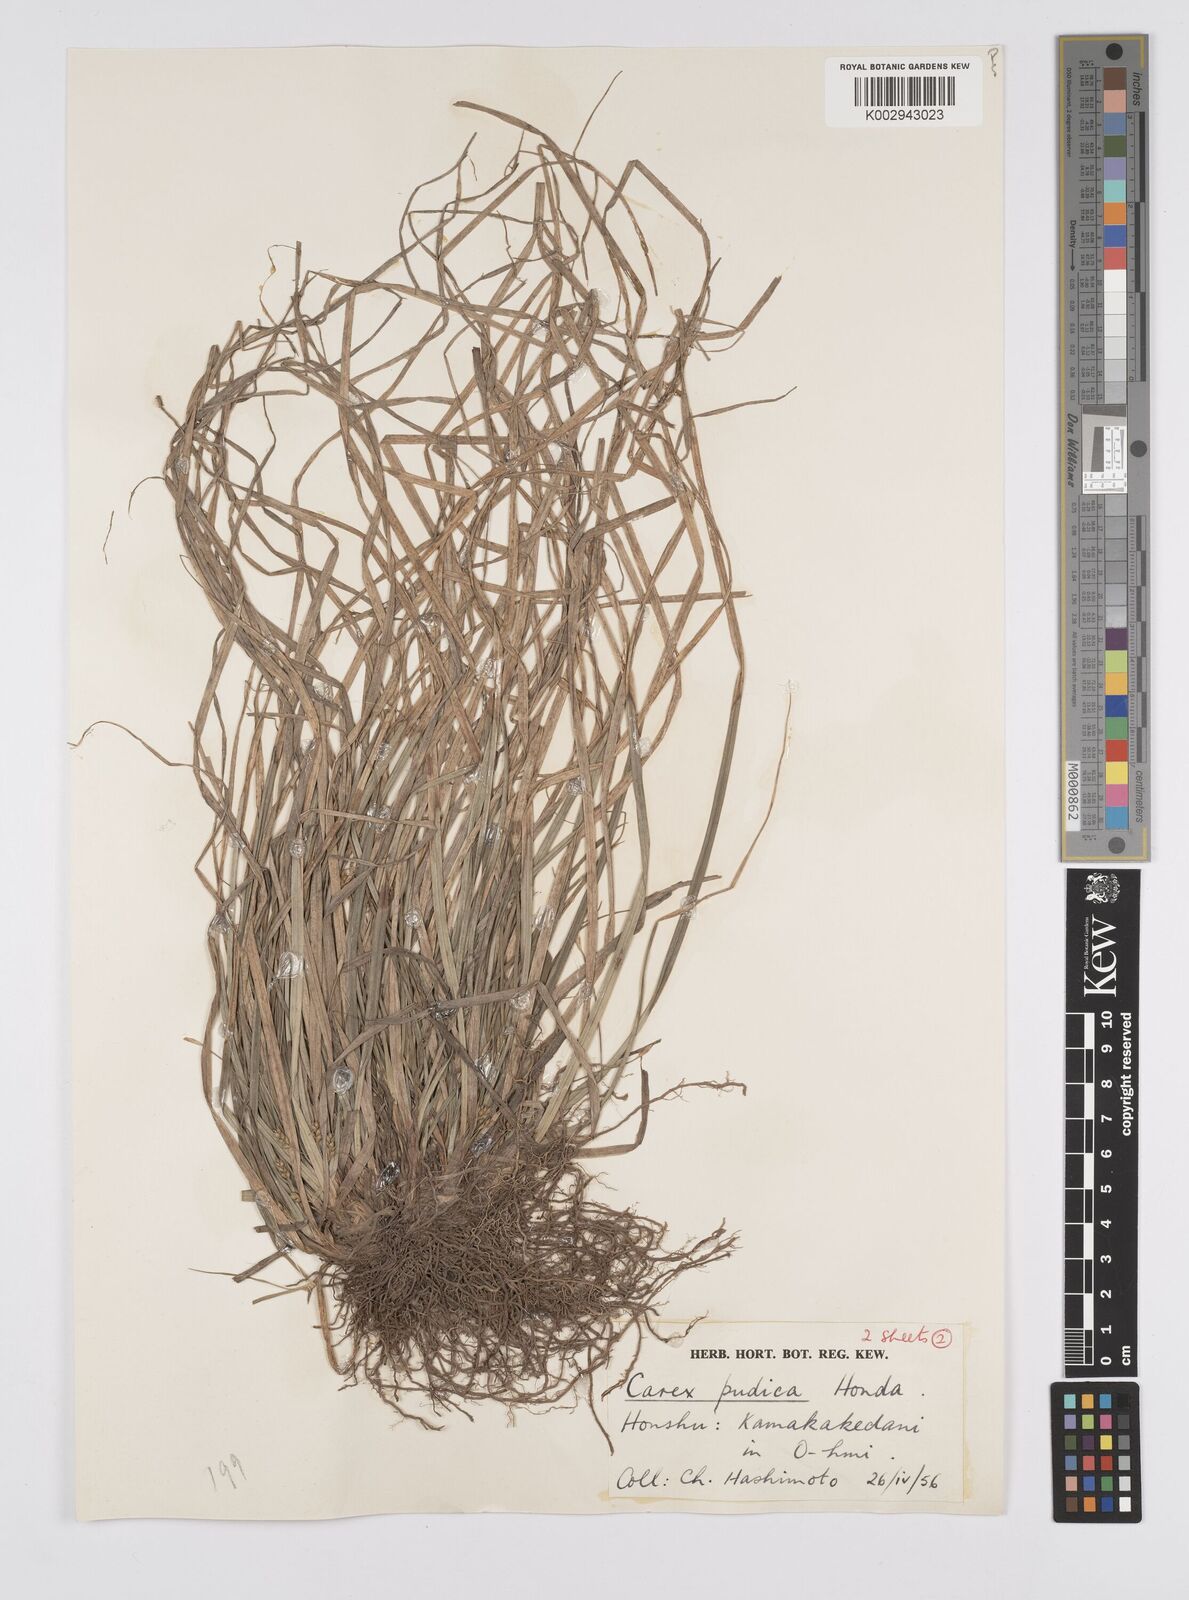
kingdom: Plantae
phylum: Tracheophyta
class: Liliopsida
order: Poales
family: Cyperaceae
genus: Carex
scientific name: Carex pudica
